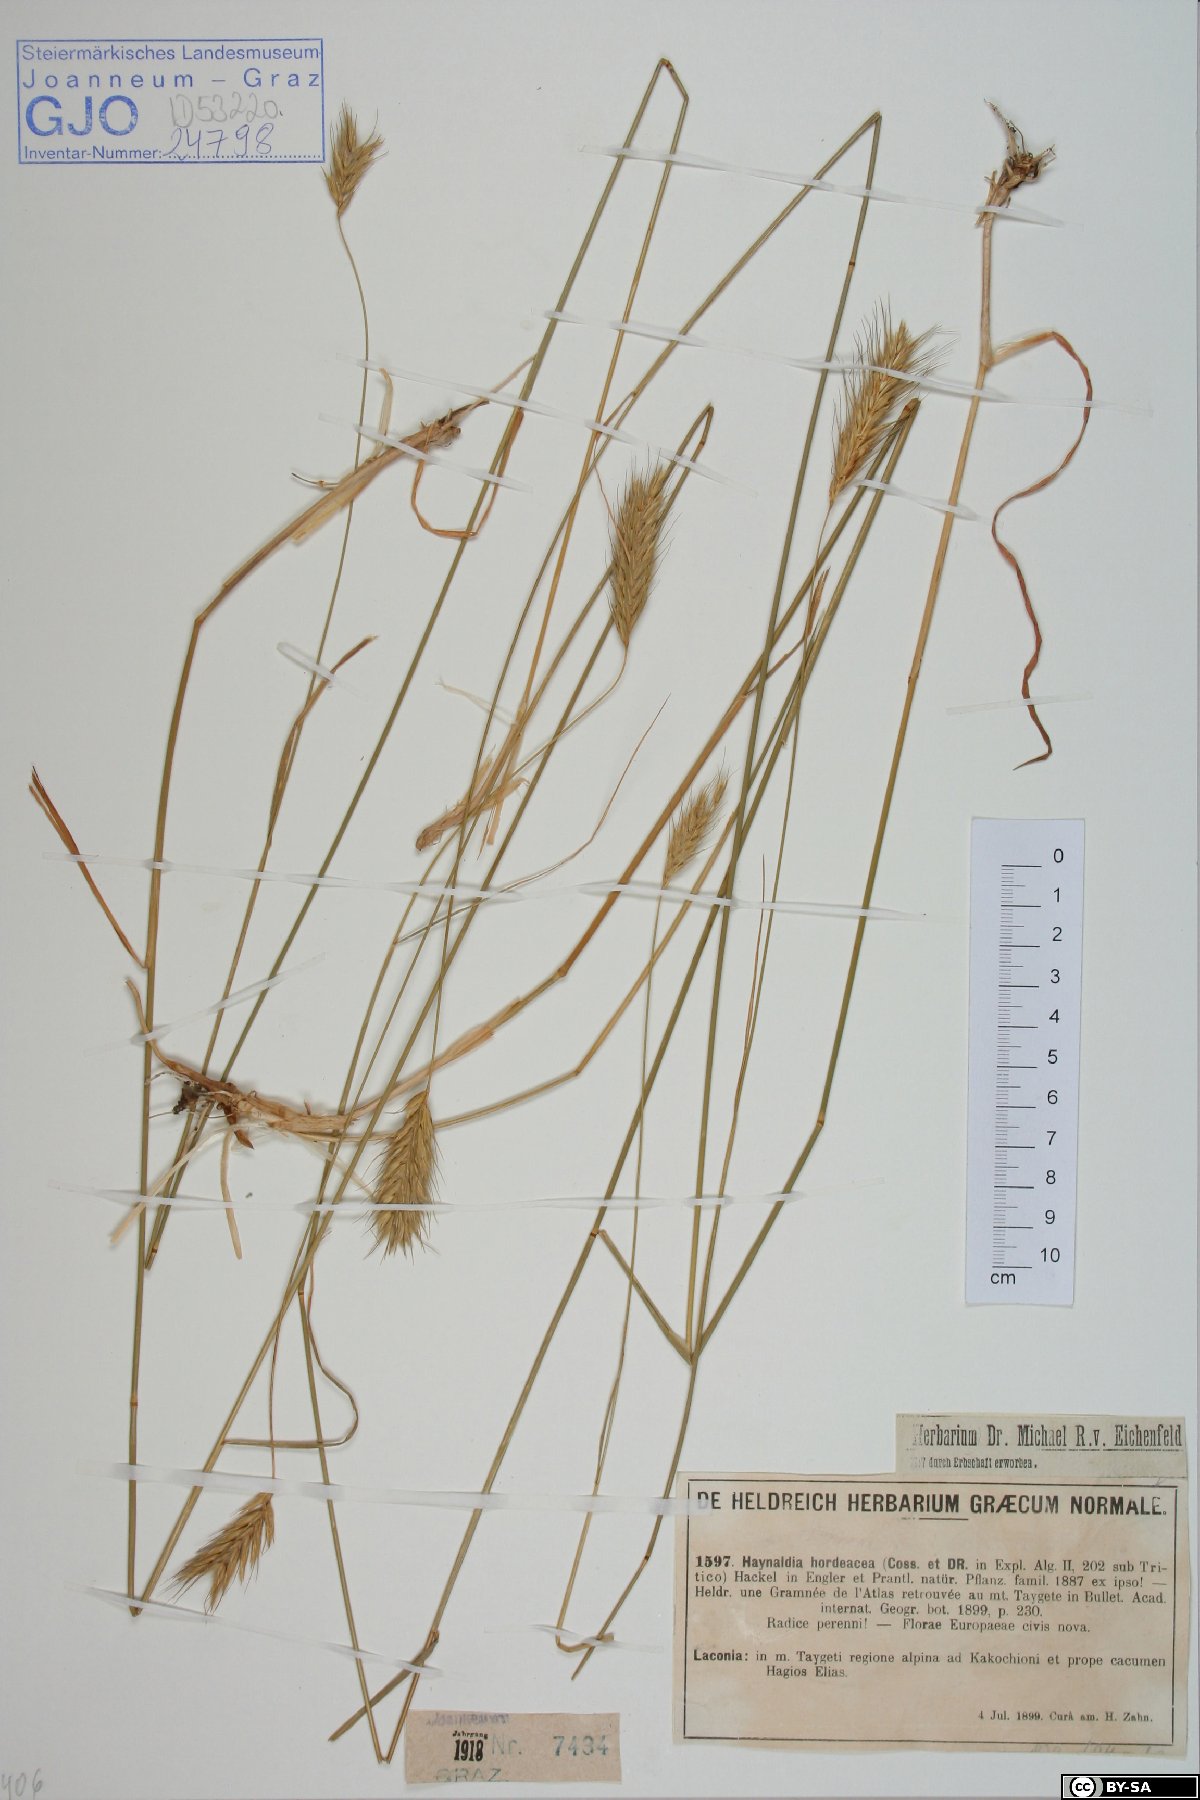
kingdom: Plantae
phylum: Tracheophyta
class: Liliopsida
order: Poales
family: Poaceae
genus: Dasypyrum
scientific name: Dasypyrum hordeaceum
